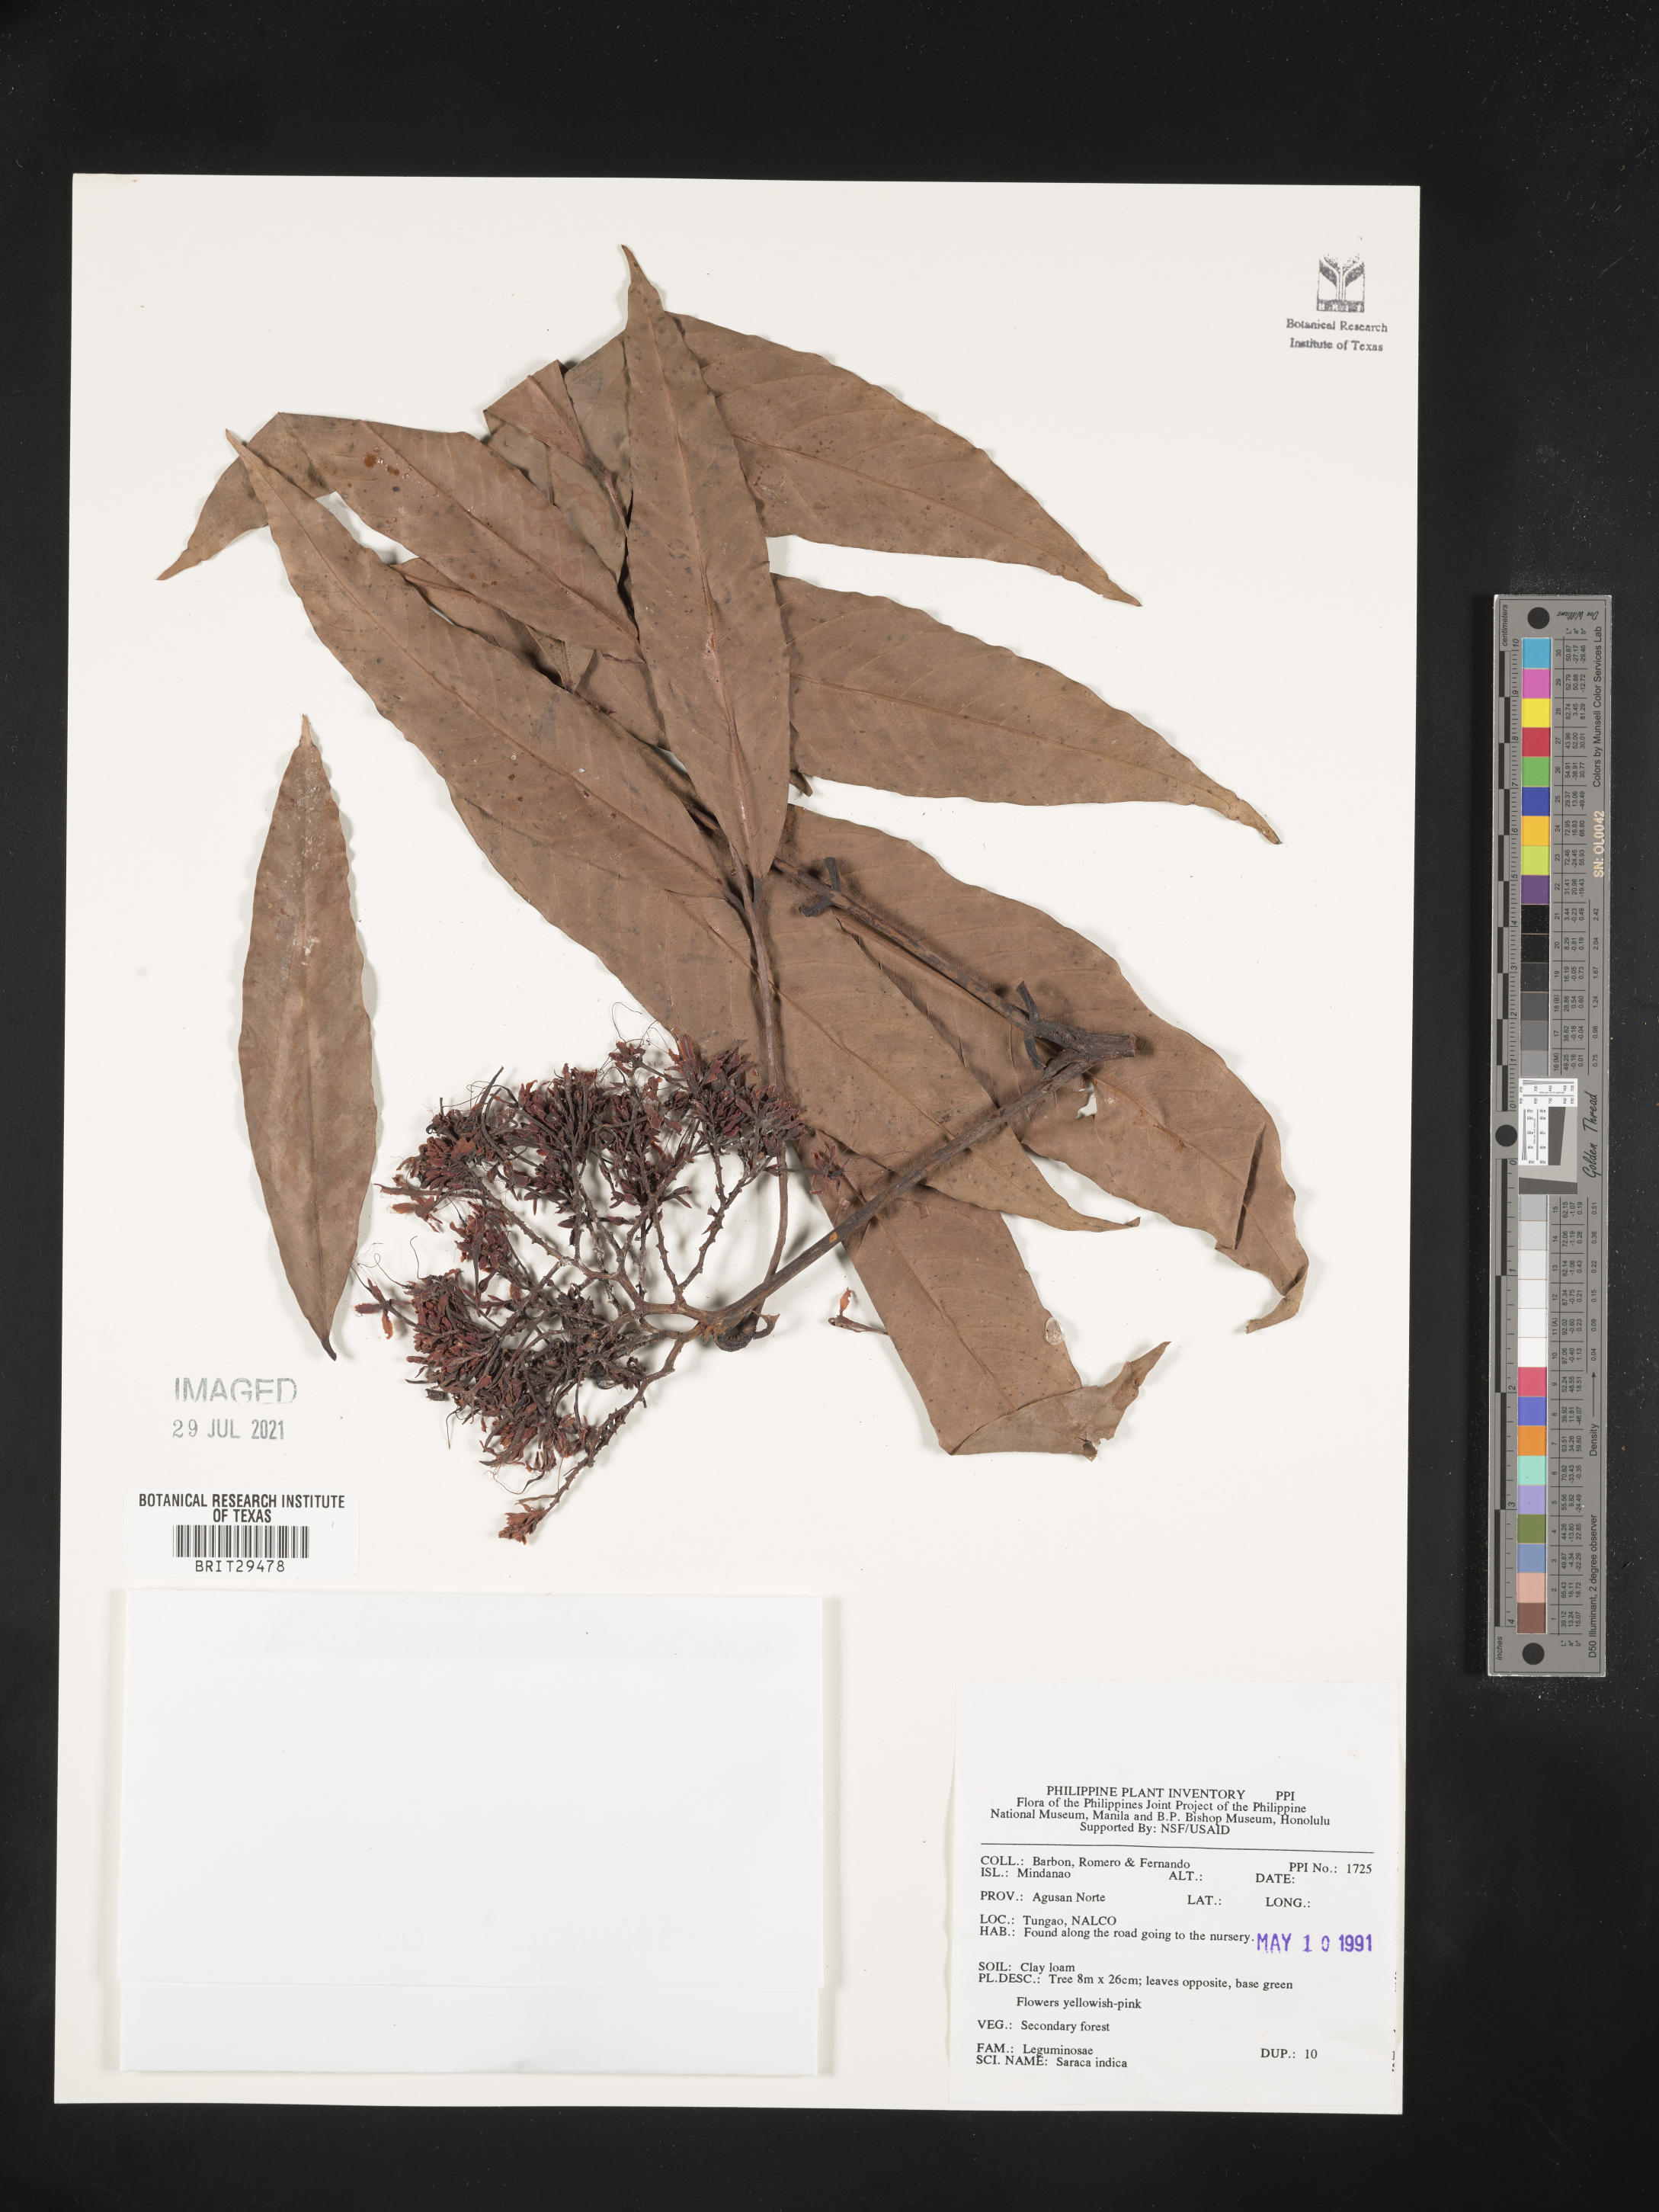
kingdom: Plantae
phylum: Tracheophyta
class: Magnoliopsida
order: Fabales
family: Fabaceae
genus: Saraca
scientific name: Saraca indica
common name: Asoka-tree
